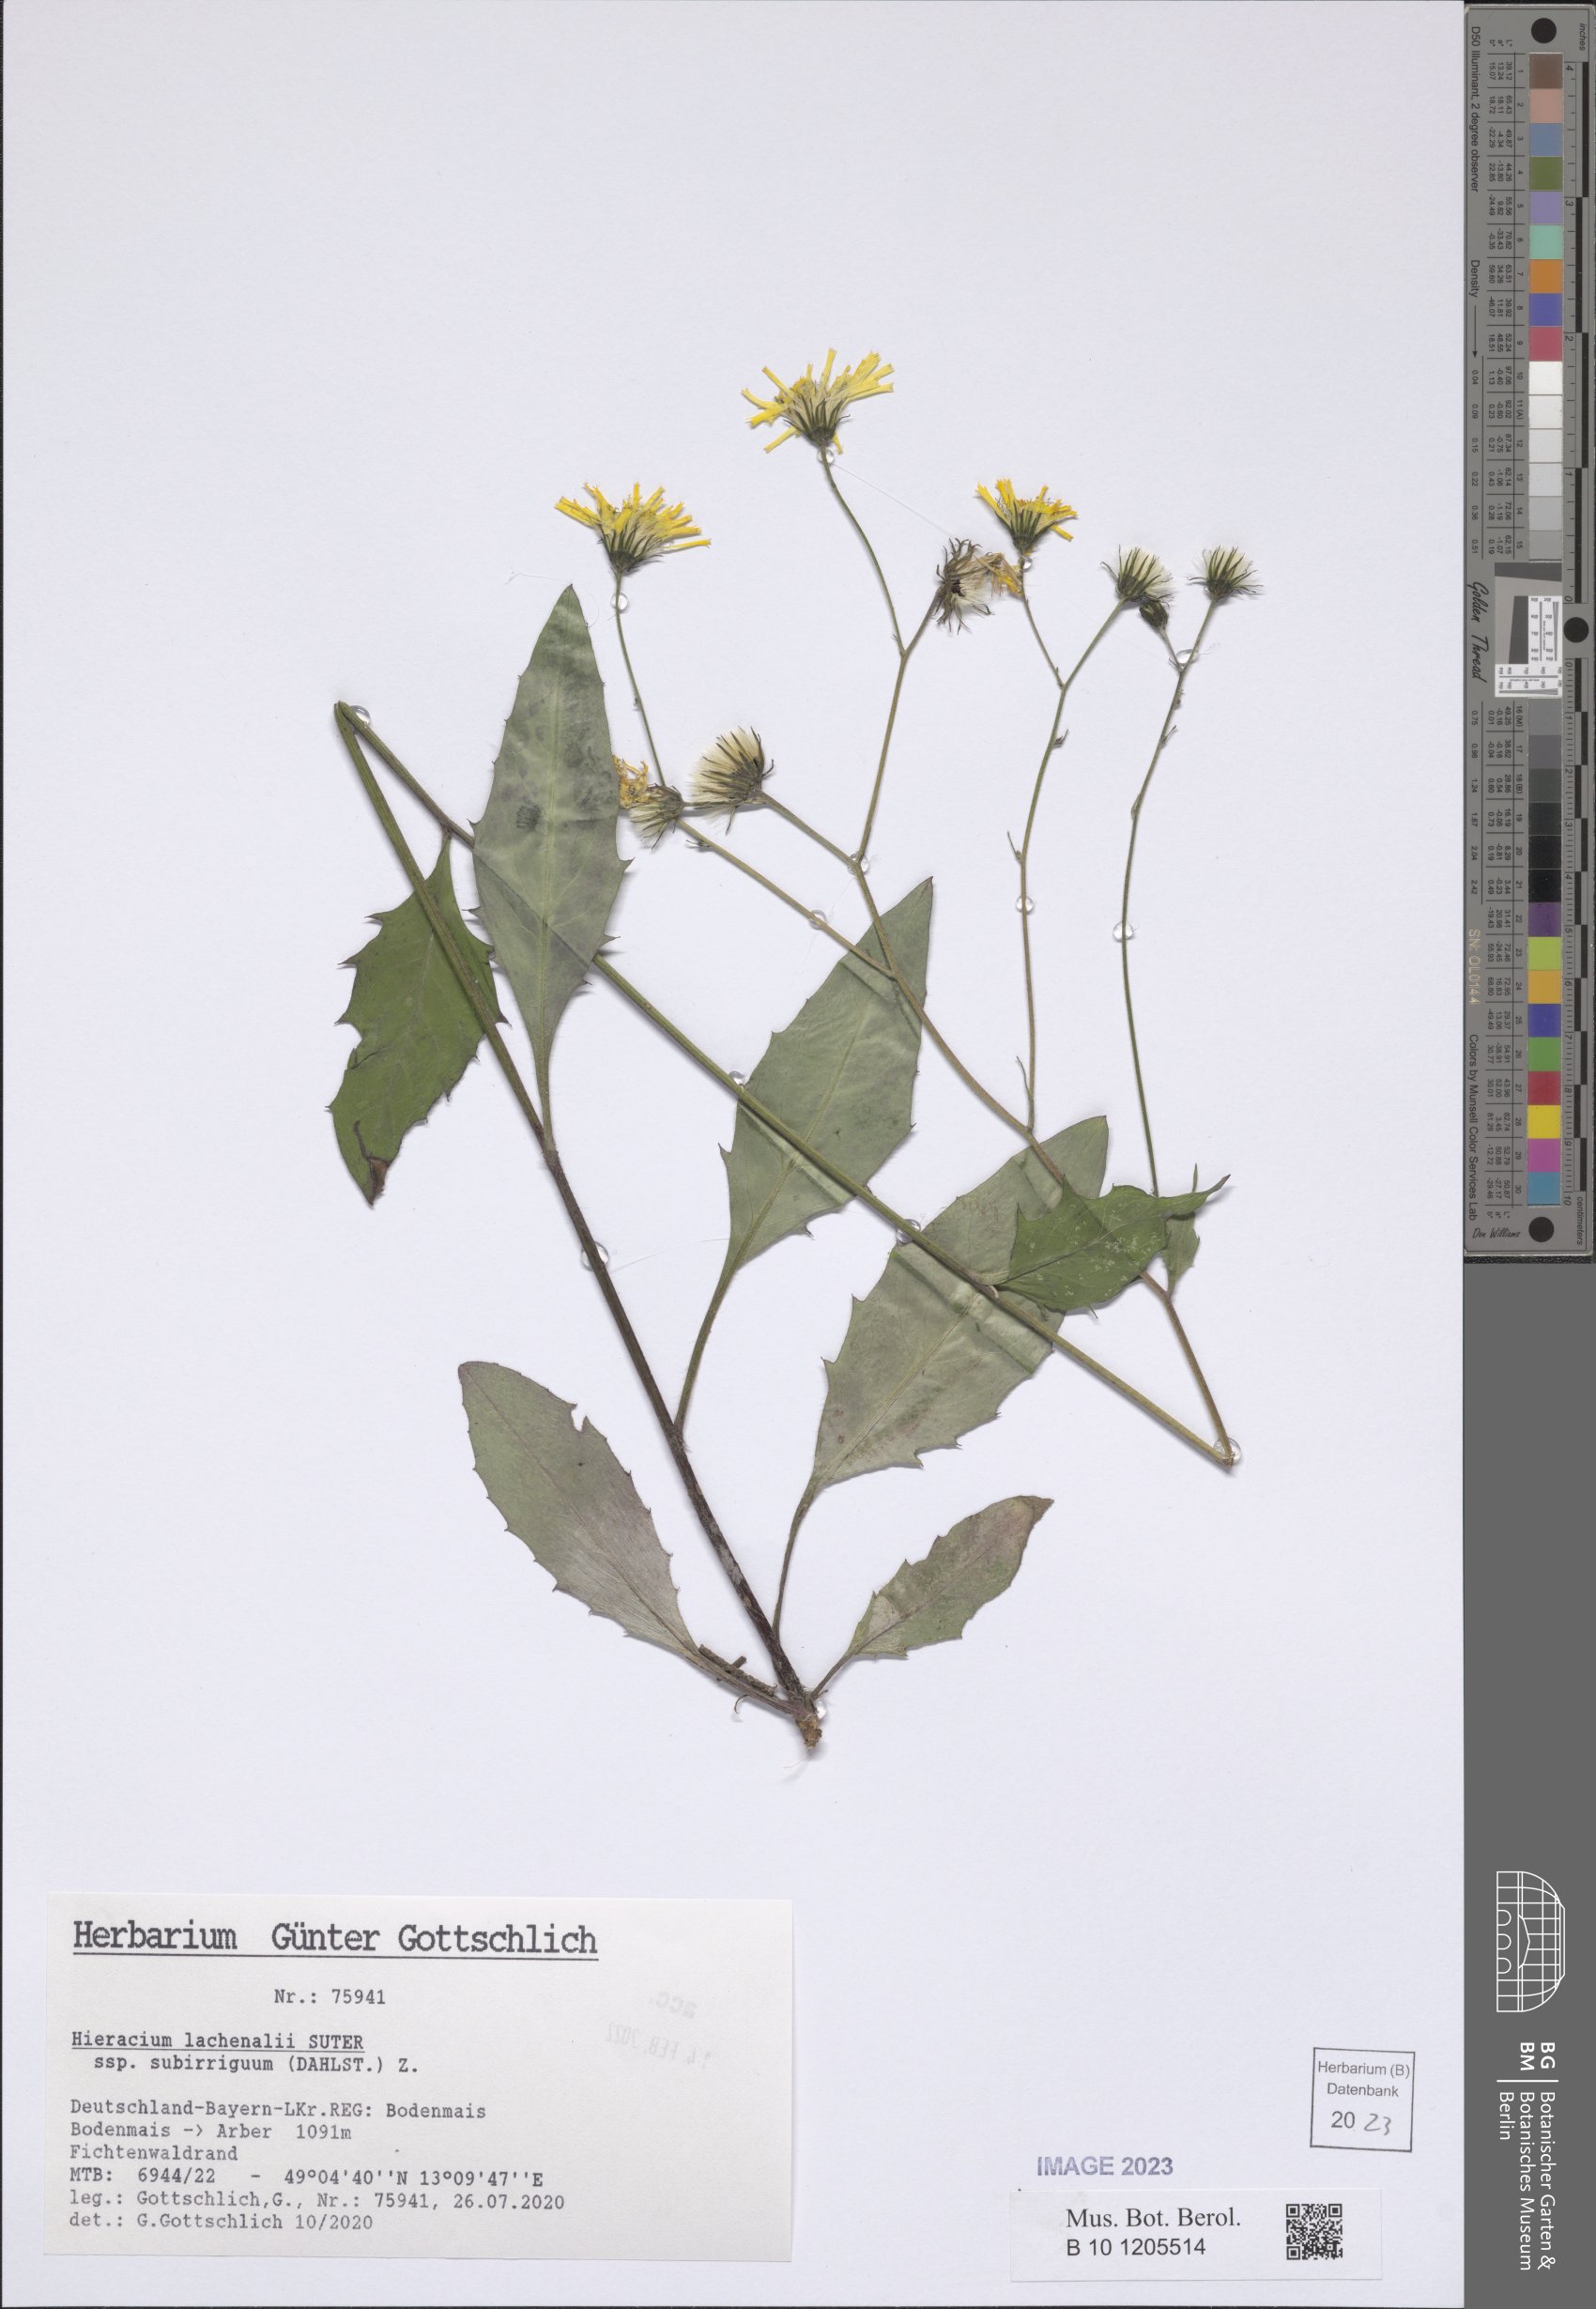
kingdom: Plantae
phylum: Tracheophyta
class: Magnoliopsida
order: Asterales
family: Asteraceae
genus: Hieracium
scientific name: Hieracium lachenalii
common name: Common hawkweed
